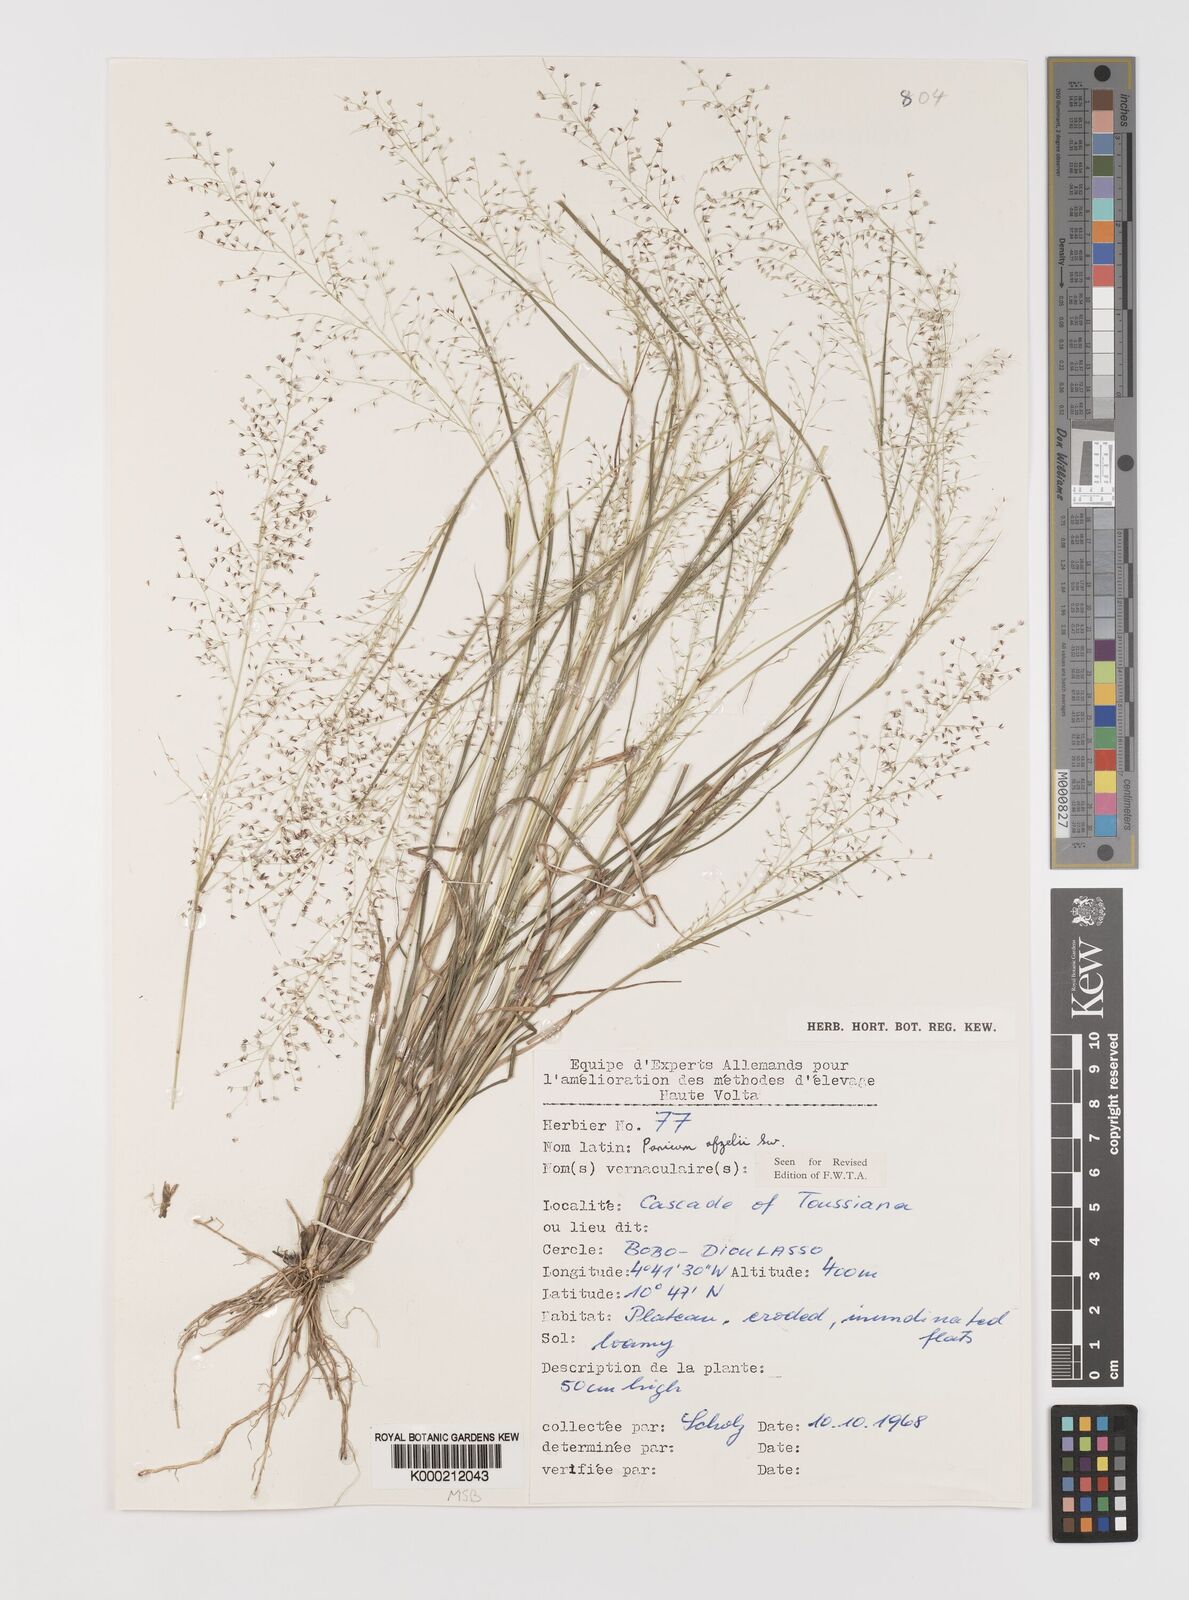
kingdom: Plantae
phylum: Tracheophyta
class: Liliopsida
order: Poales
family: Poaceae
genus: Panicum
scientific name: Panicum afzelii
